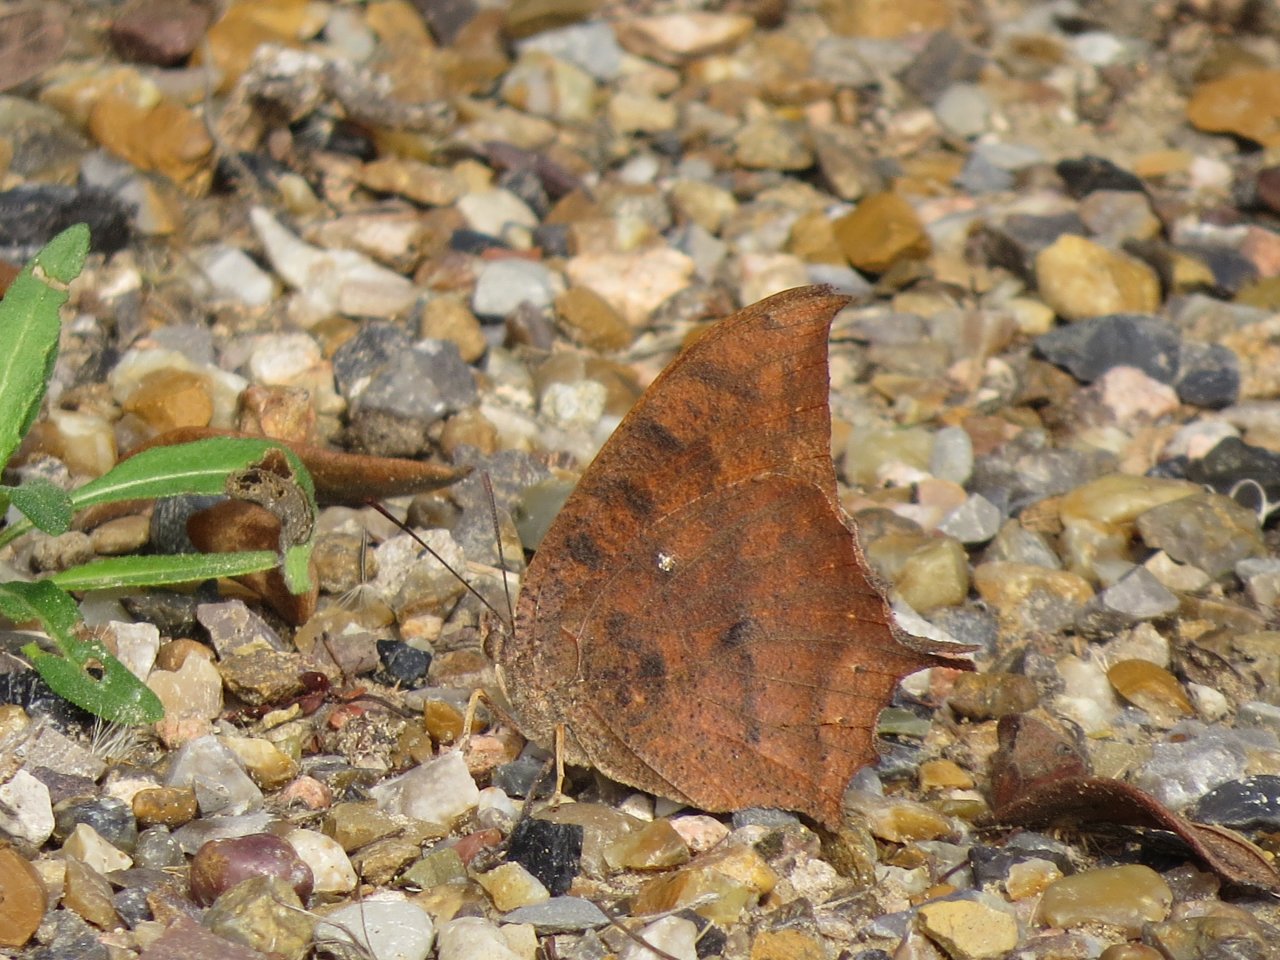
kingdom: Animalia
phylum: Arthropoda
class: Insecta
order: Lepidoptera
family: Nymphalidae
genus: Anaea
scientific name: Anaea aidea
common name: Tropical Leafwing
